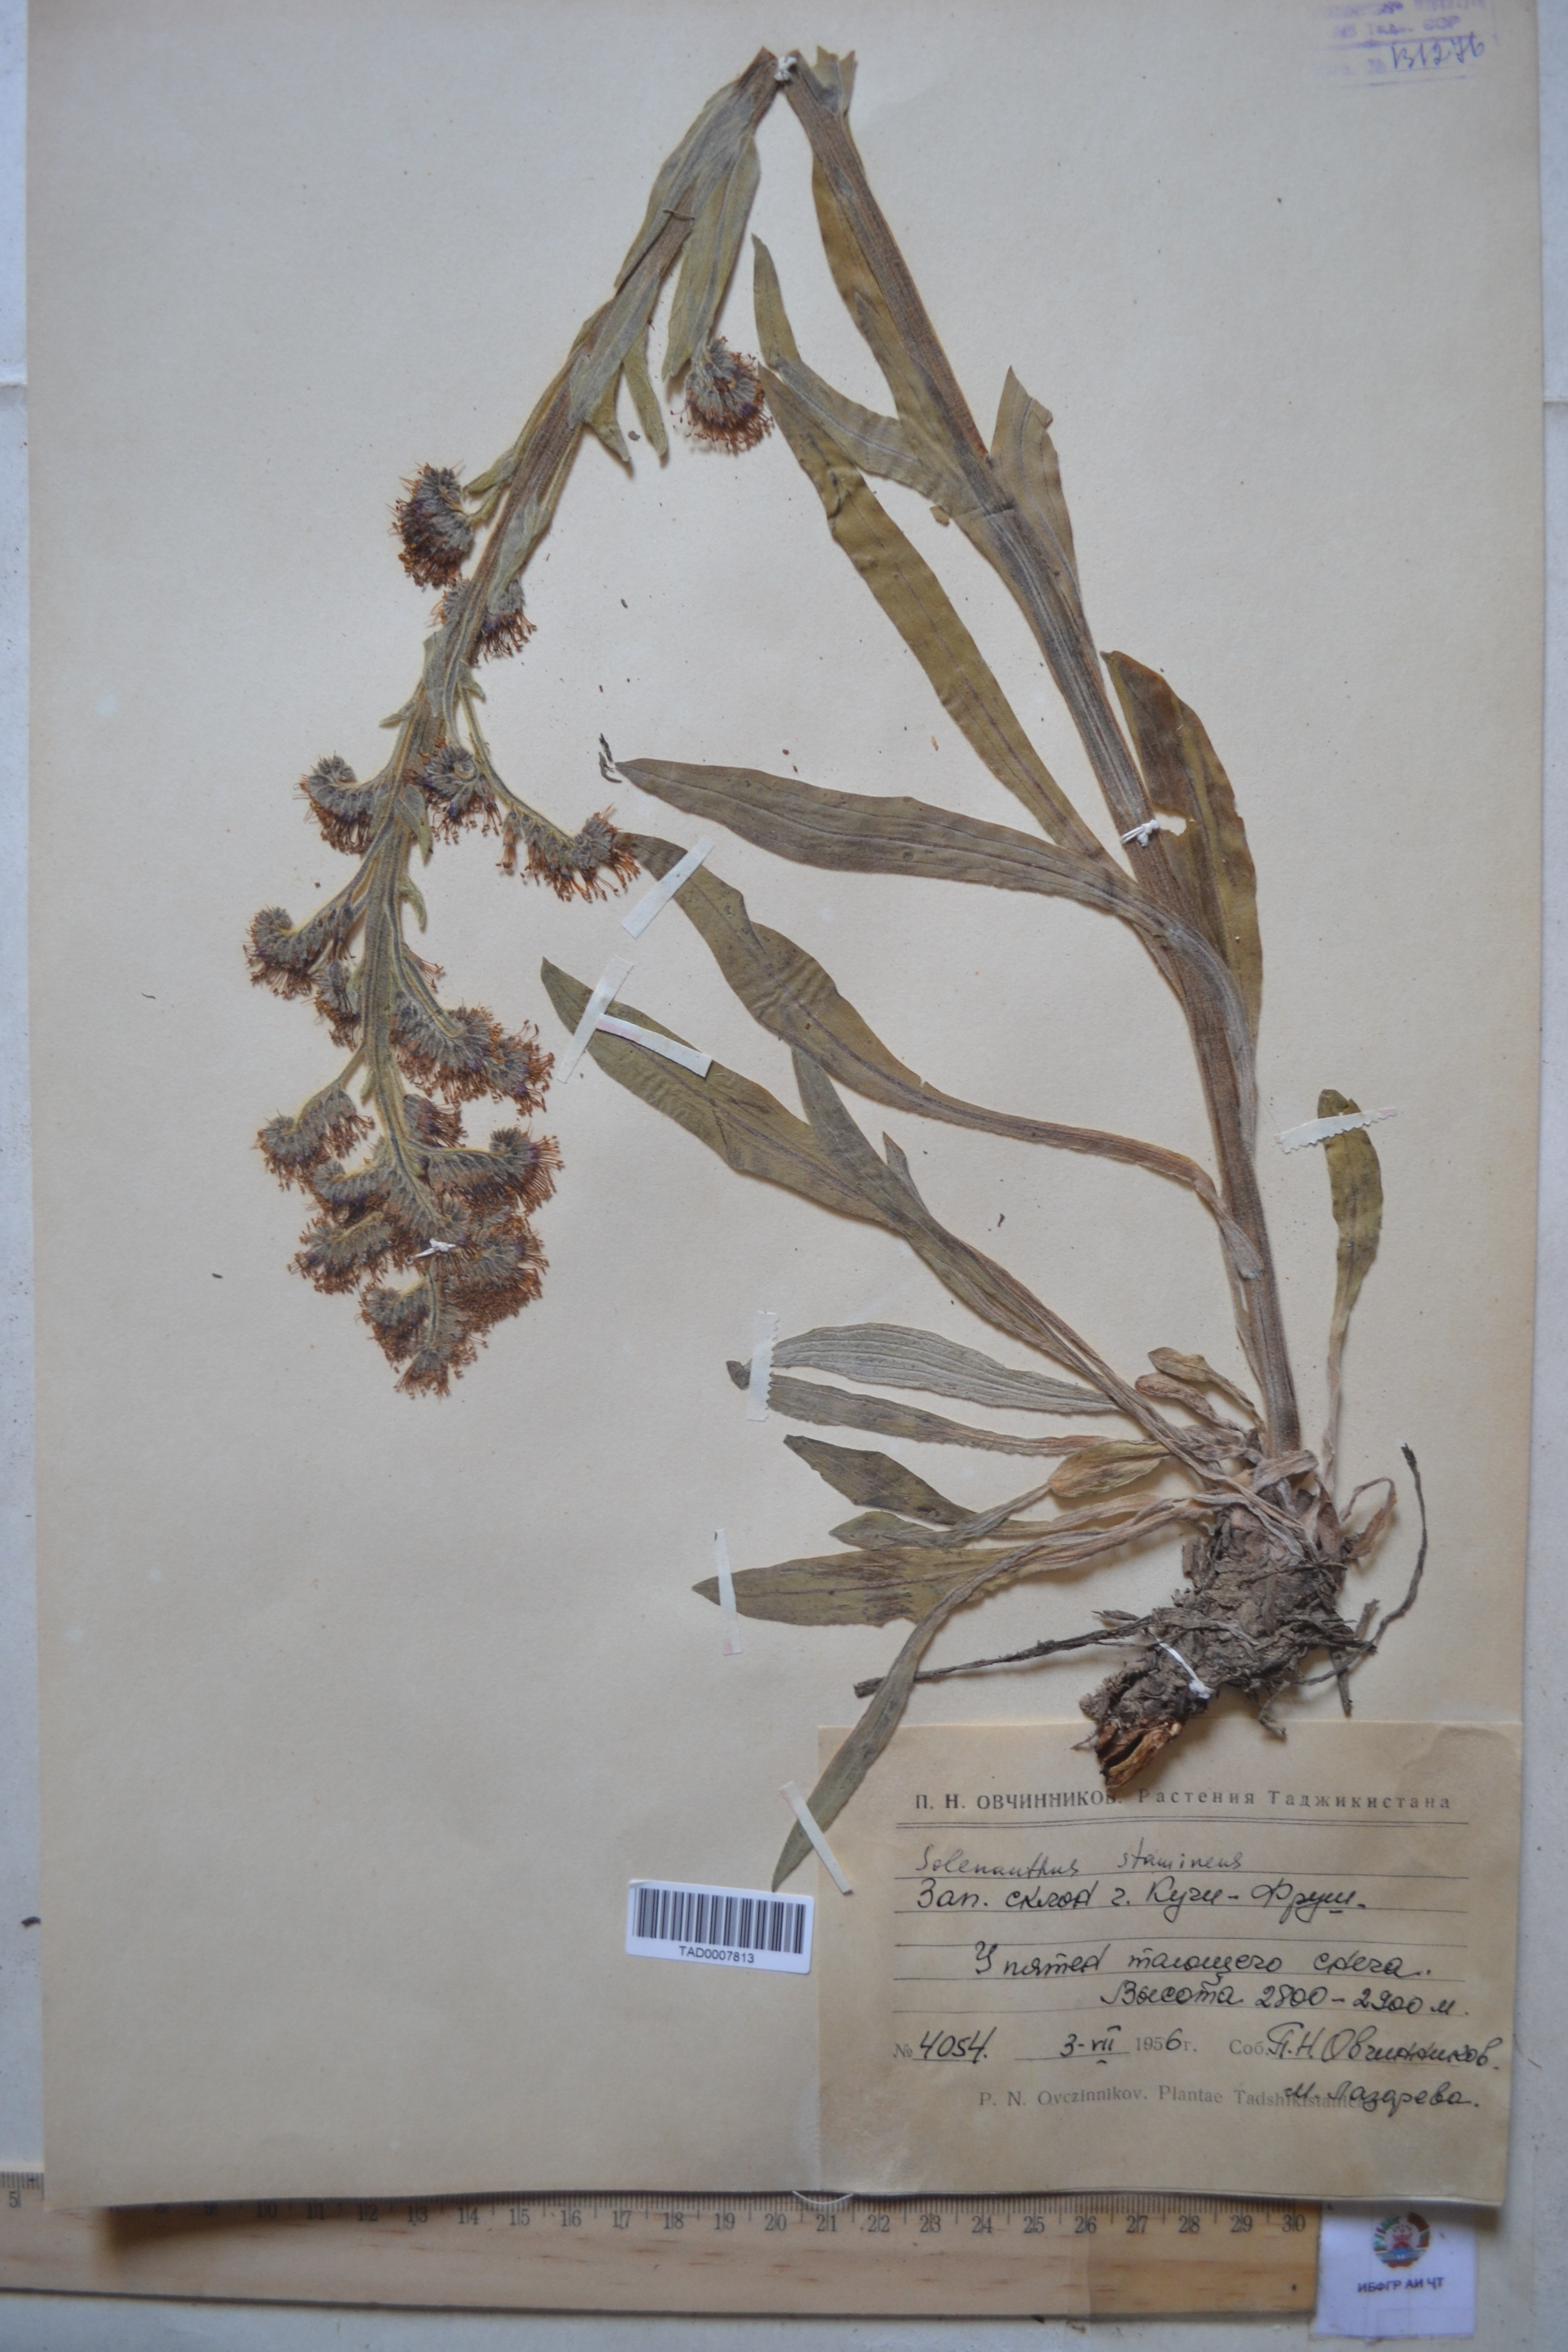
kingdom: Plantae
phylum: Tracheophyta
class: Magnoliopsida
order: Boraginales
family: Boraginaceae
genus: Solenanthus
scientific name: Solenanthus stamineus
